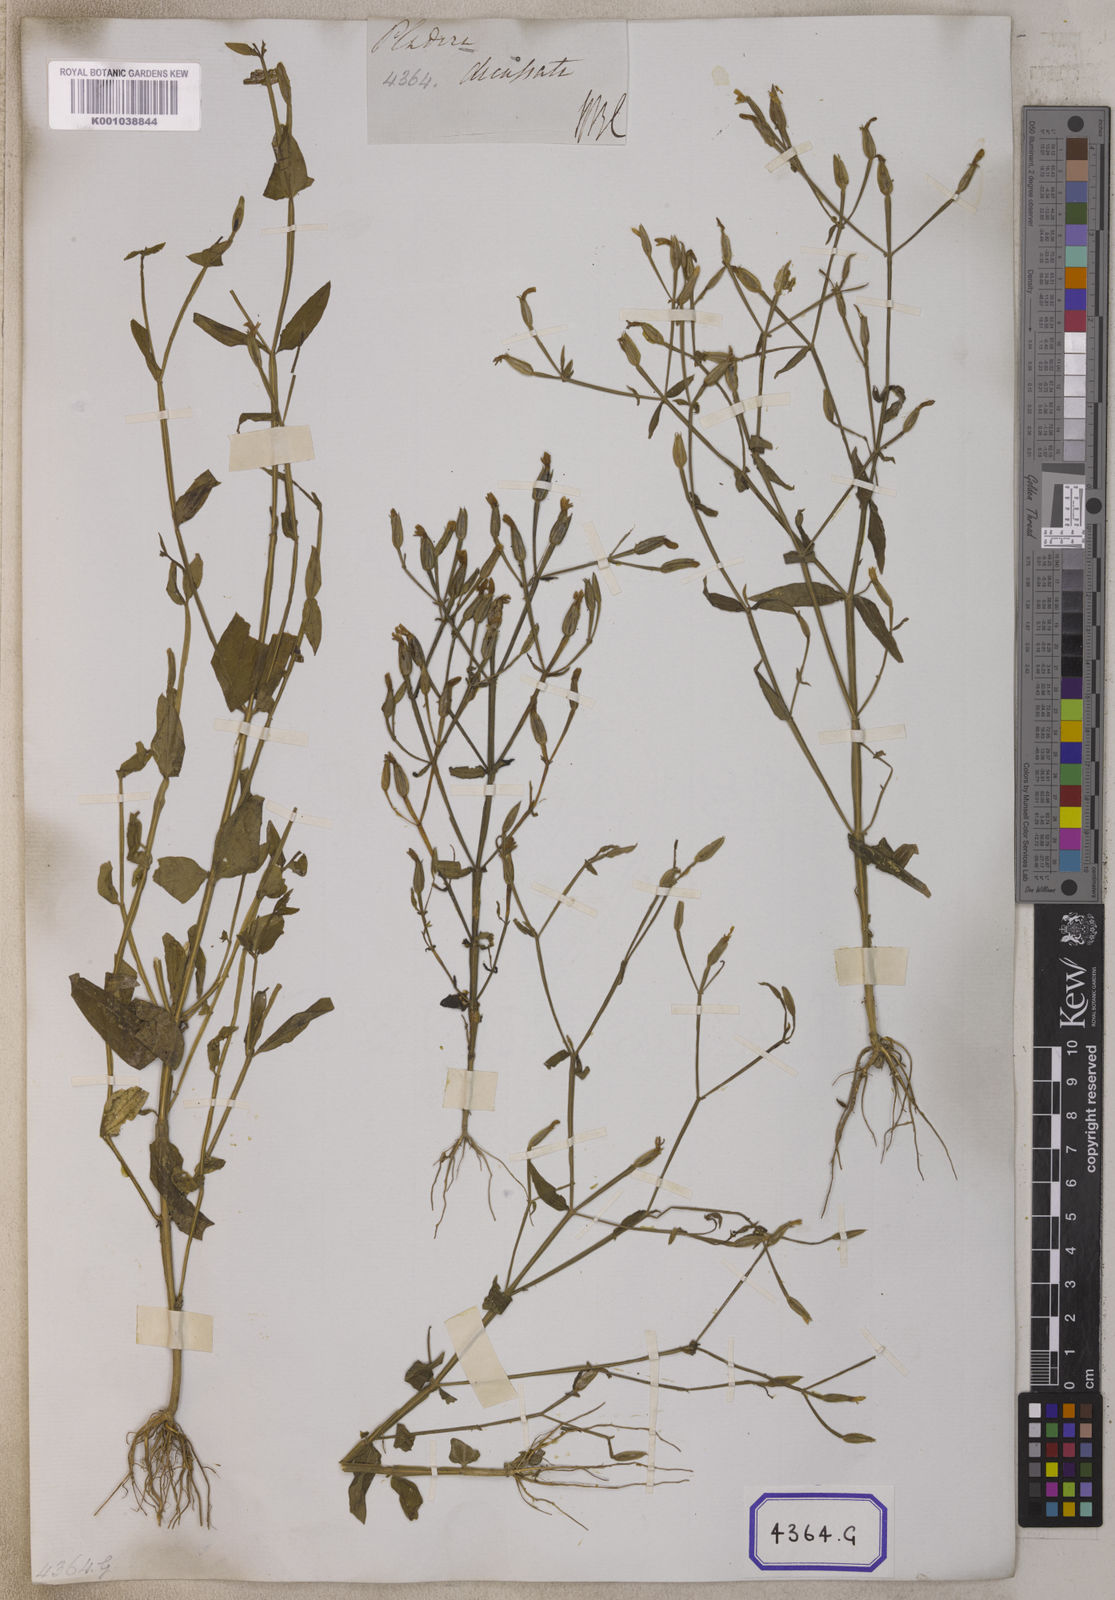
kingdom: Plantae
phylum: Tracheophyta
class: Magnoliopsida
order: Gentianales
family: Gentianaceae
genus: Canscora
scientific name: Canscora alata
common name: Canscora
